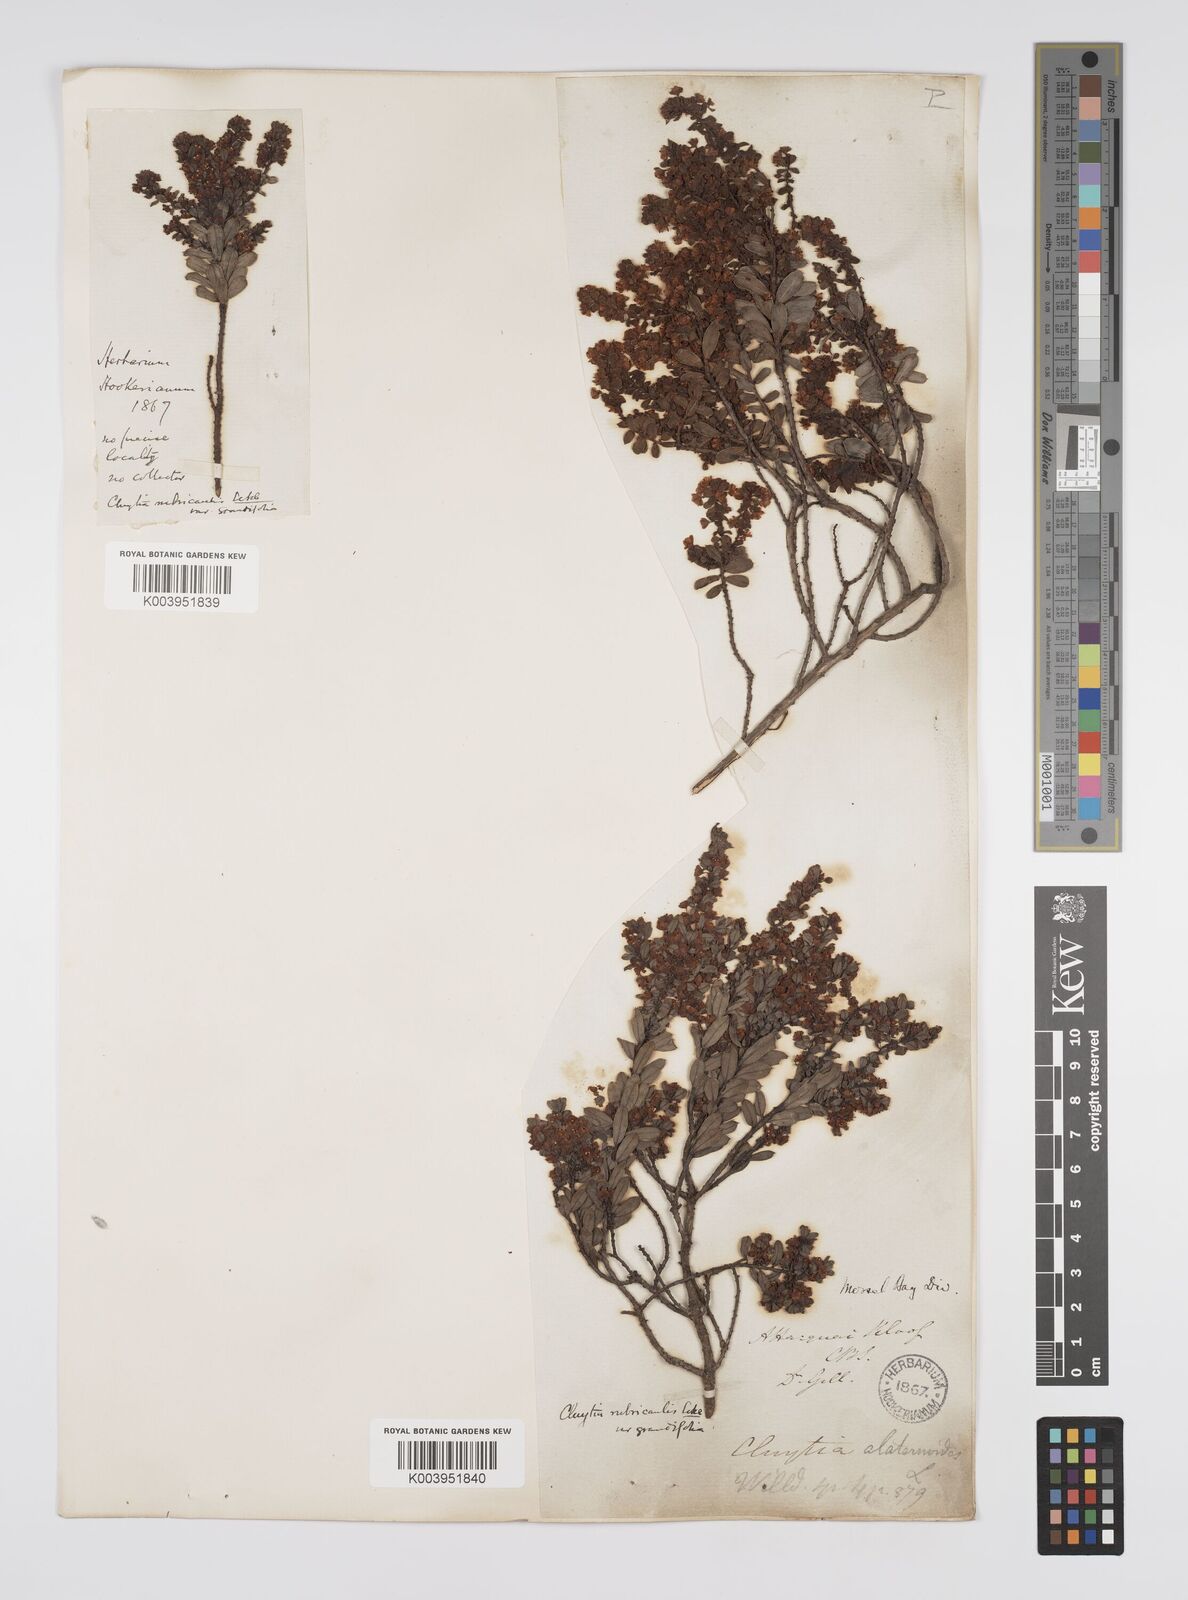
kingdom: Plantae
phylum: Tracheophyta
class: Magnoliopsida
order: Malpighiales
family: Peraceae
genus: Clutia
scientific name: Clutia rubricaulis
